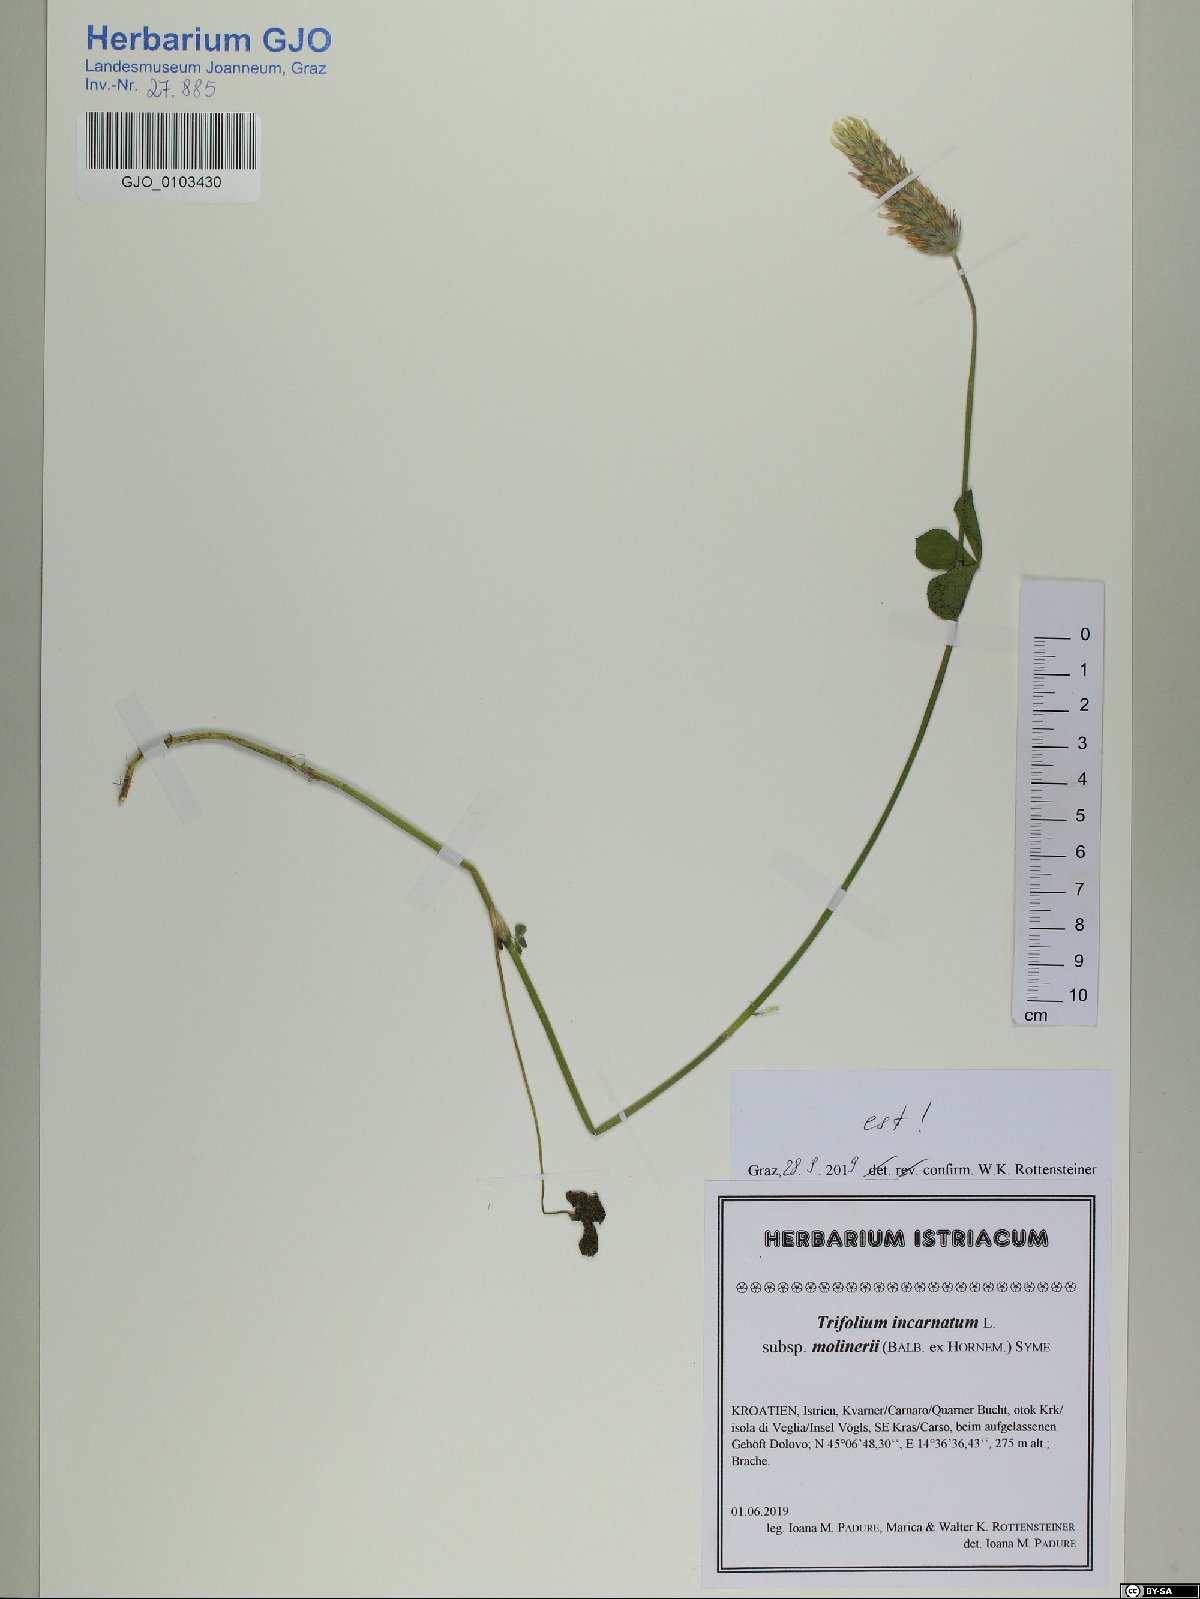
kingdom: Plantae
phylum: Tracheophyta
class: Magnoliopsida
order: Fabales
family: Fabaceae
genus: Trifolium
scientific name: Trifolium incarnatum
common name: Crimson clover
